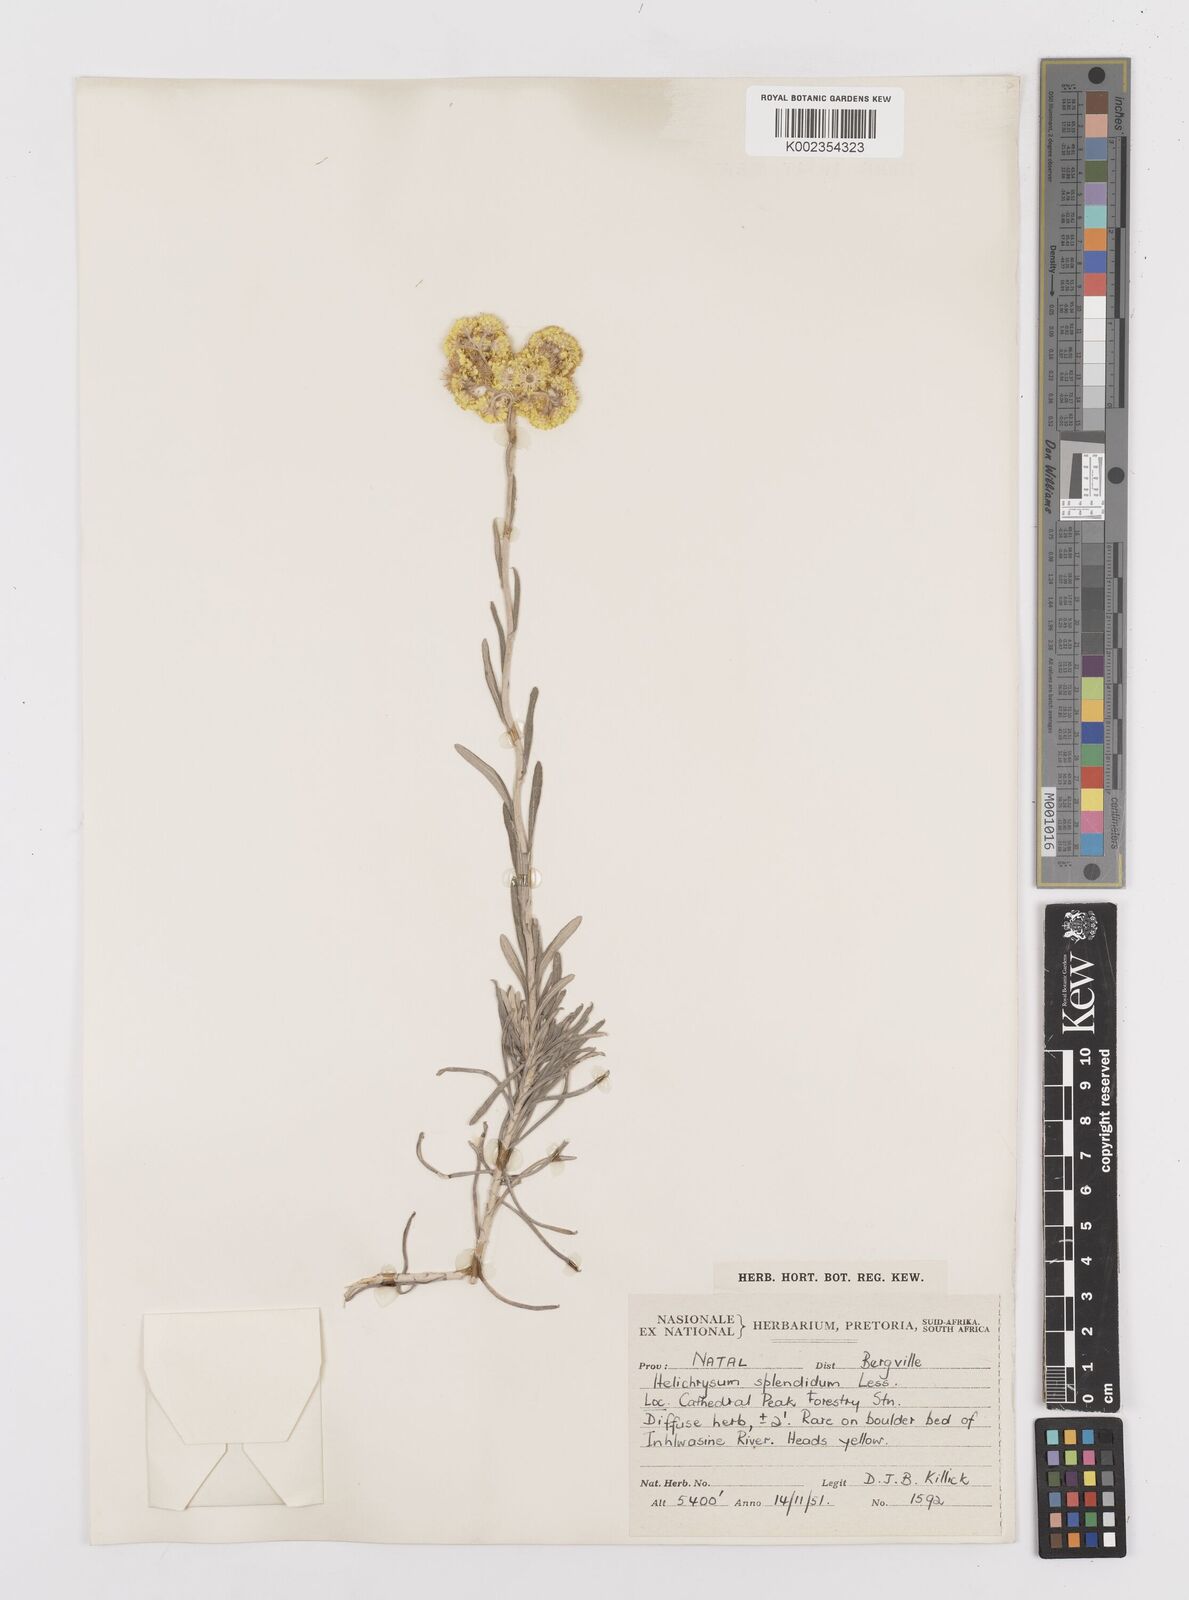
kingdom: Plantae
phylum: Tracheophyta
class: Magnoliopsida
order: Asterales
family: Asteraceae
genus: Helichrysum
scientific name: Helichrysum splendidum
